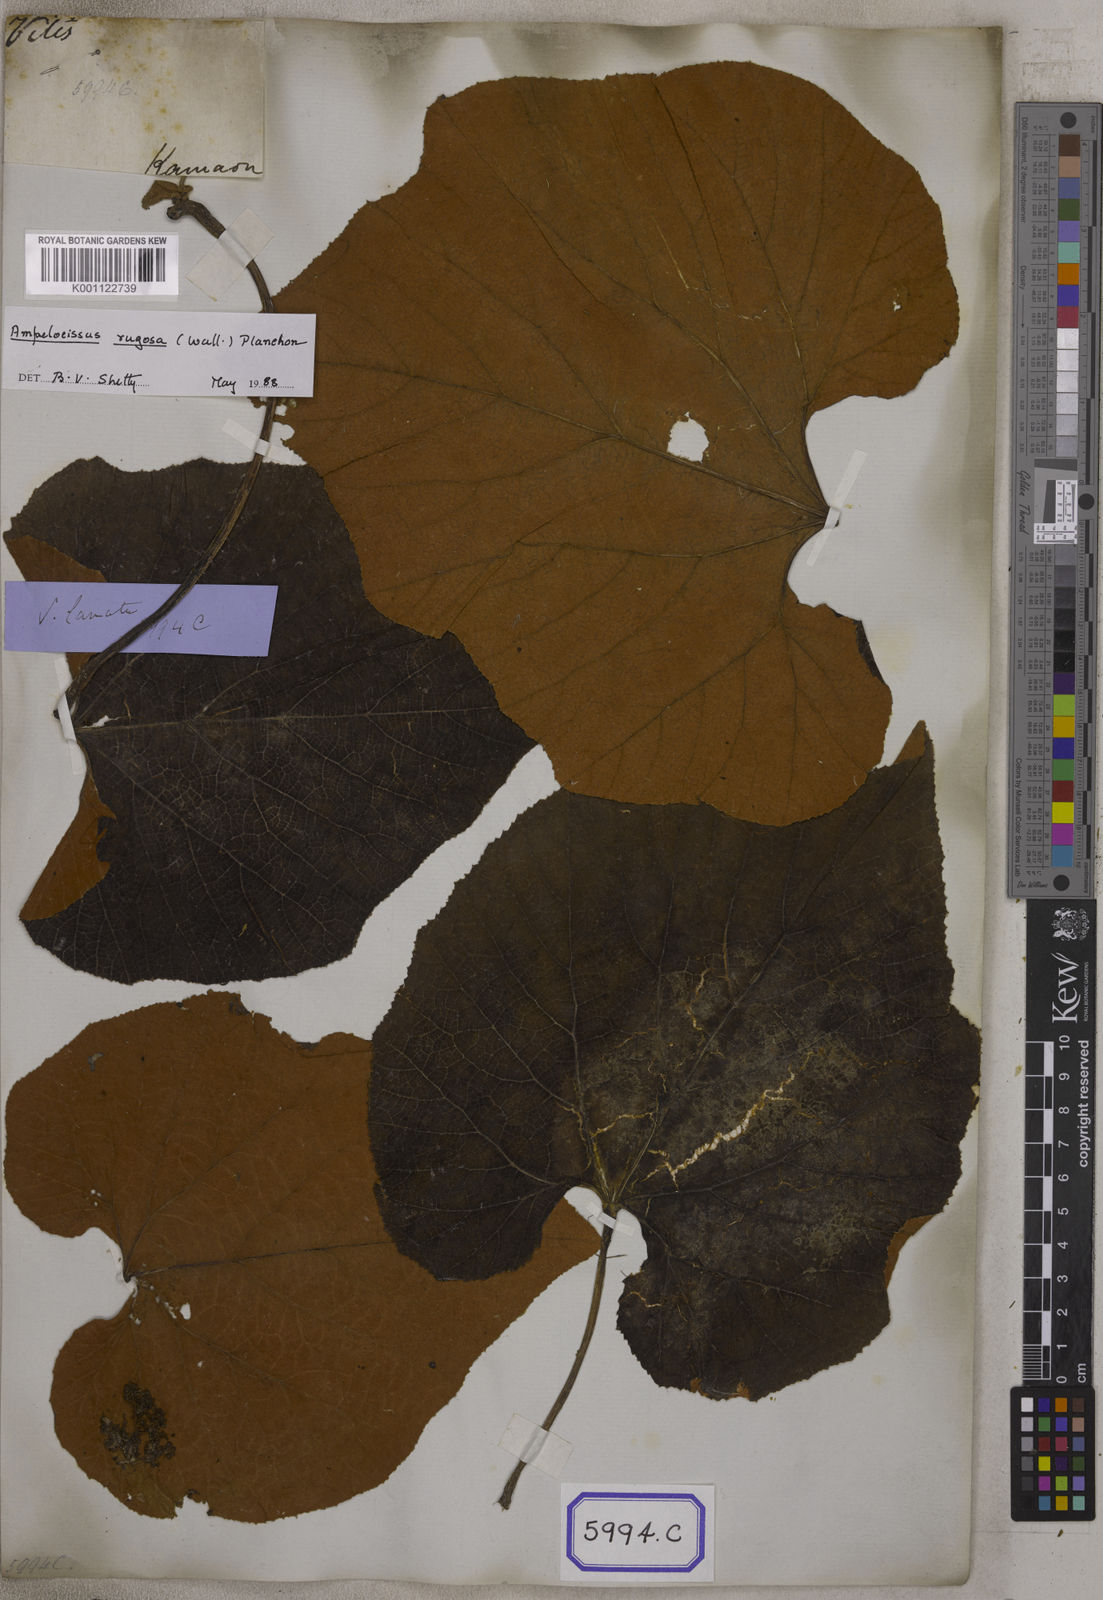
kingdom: Plantae
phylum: Tracheophyta
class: Magnoliopsida
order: Vitales
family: Vitaceae
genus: Ampelocissus
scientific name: Ampelocissus rugosa
